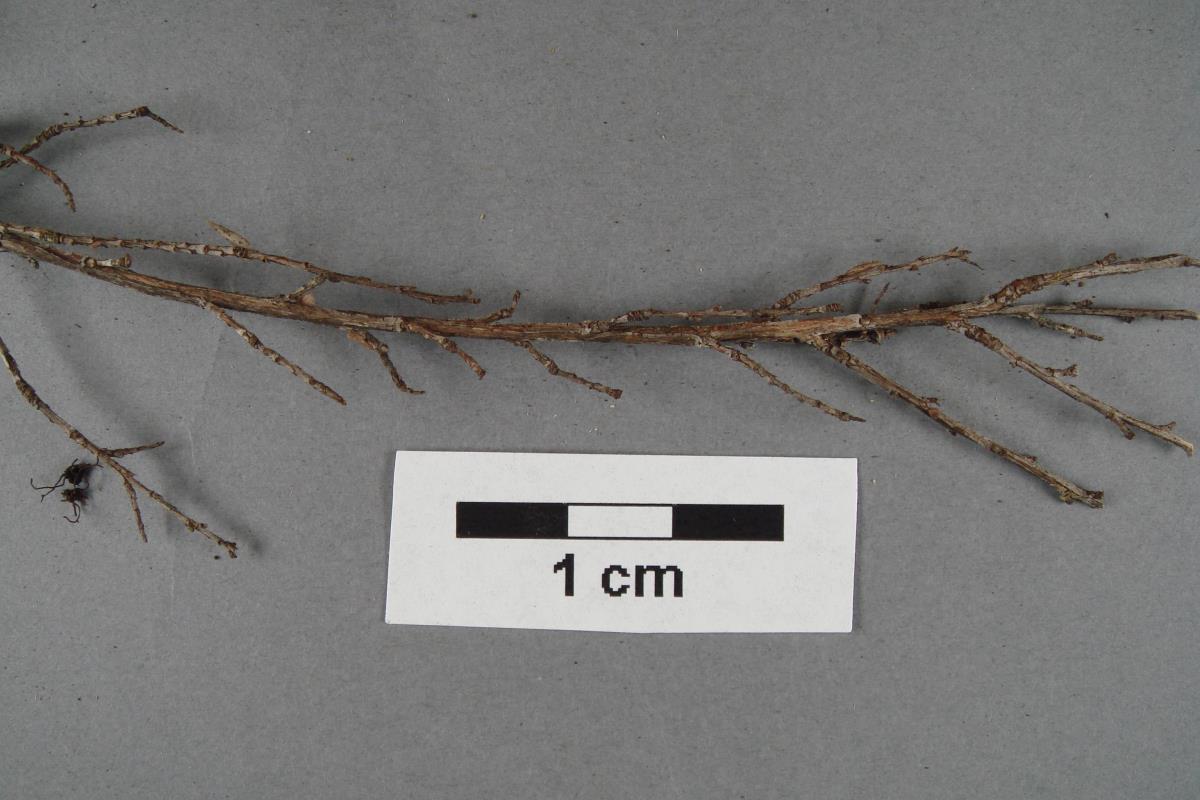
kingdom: Fungi
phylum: Basidiomycota
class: Agaricomycetes
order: Agaricales
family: Omphalotaceae
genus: Marasmiellus
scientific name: Marasmiellus
